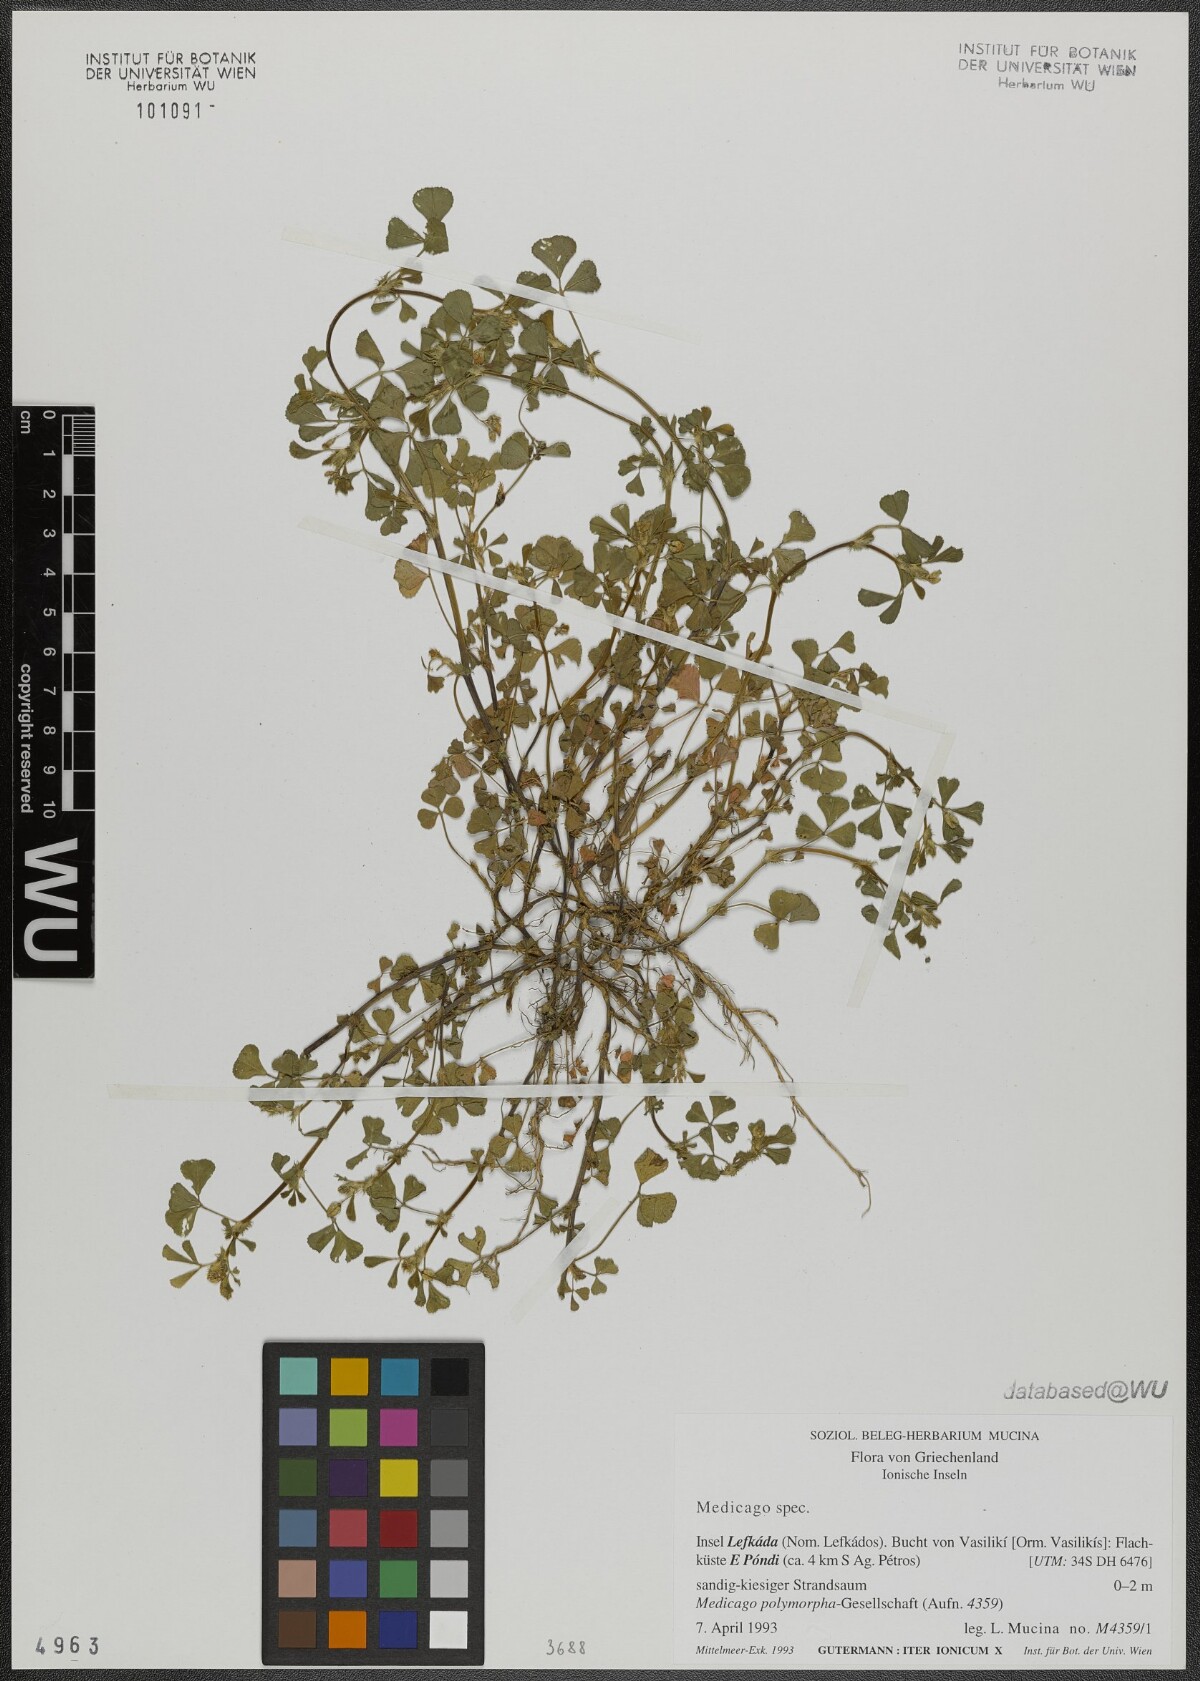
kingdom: Plantae
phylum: Tracheophyta
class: Magnoliopsida
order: Fabales
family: Fabaceae
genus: Medicago
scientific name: Medicago
